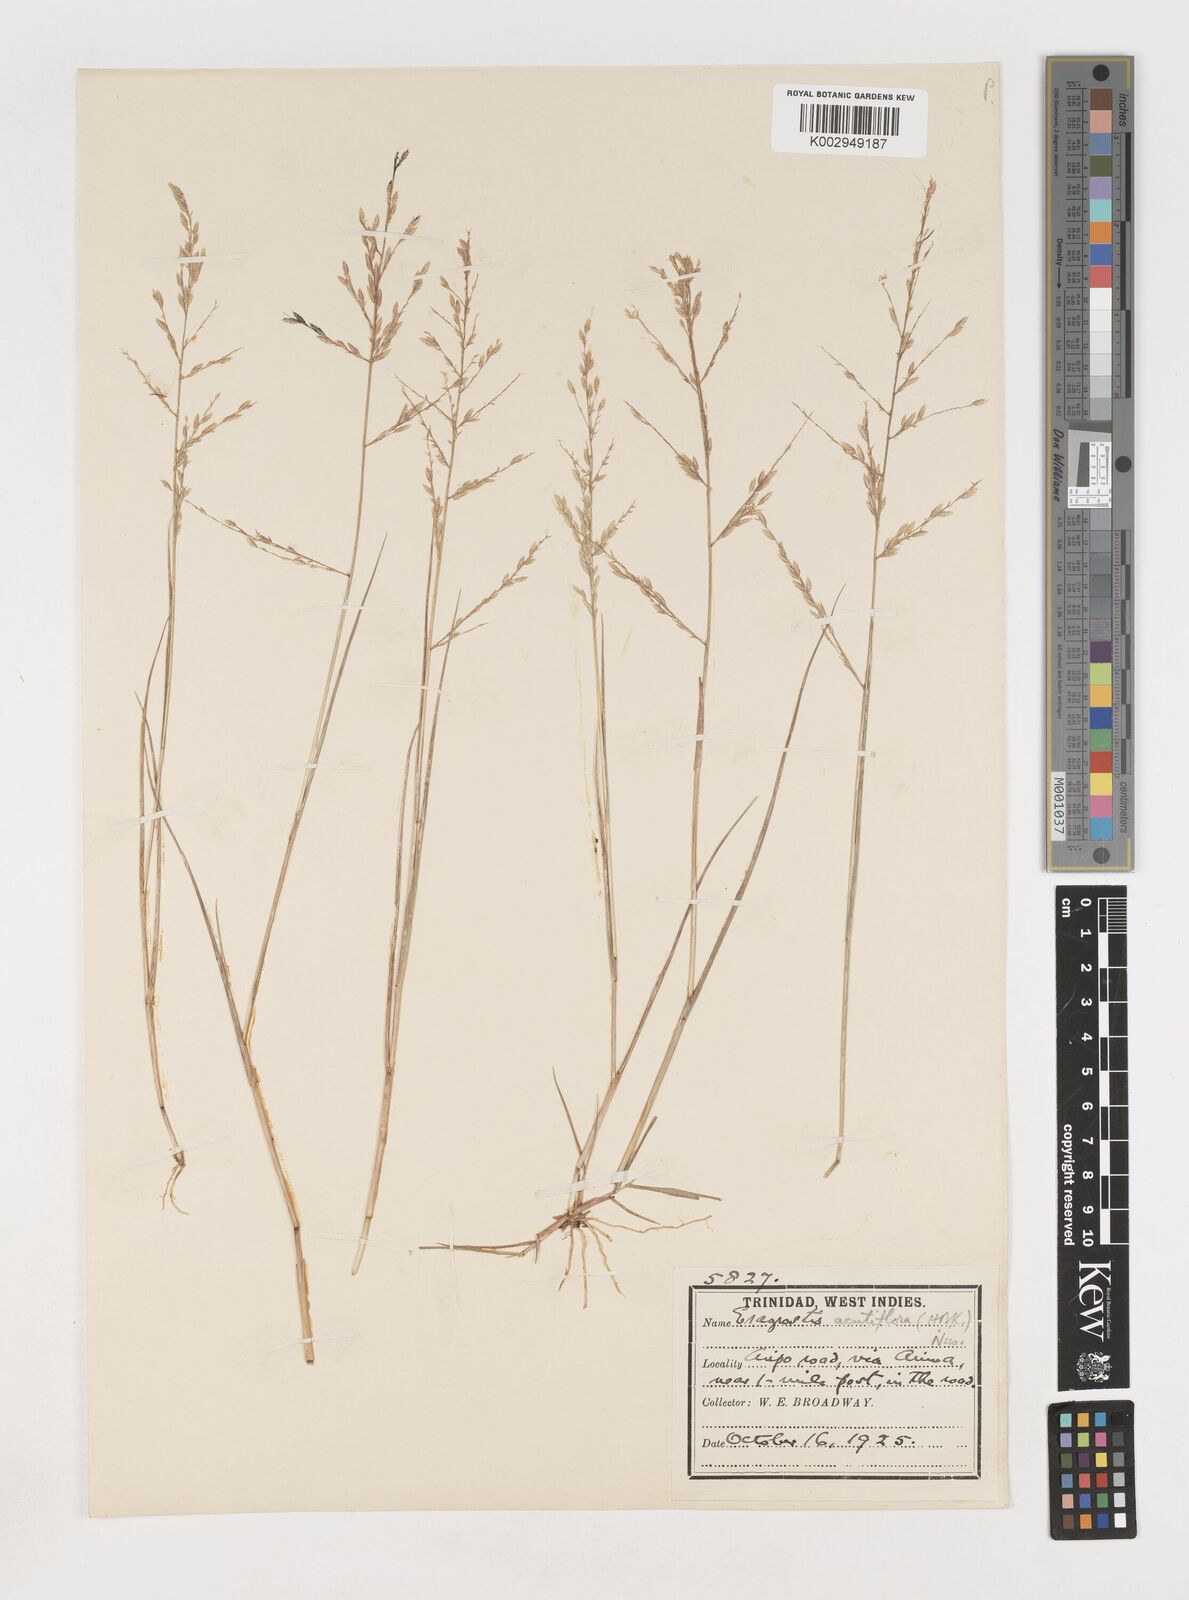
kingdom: Plantae
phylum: Tracheophyta
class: Liliopsida
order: Poales
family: Poaceae
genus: Eragrostis
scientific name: Eragrostis acutiflora
